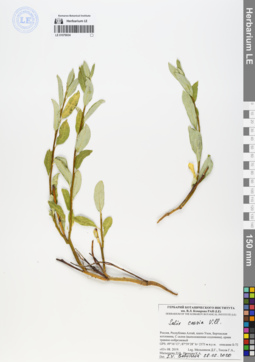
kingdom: Plantae
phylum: Tracheophyta
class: Magnoliopsida
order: Malpighiales
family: Salicaceae
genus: Salix
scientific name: Salix caesia
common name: Blue willow
